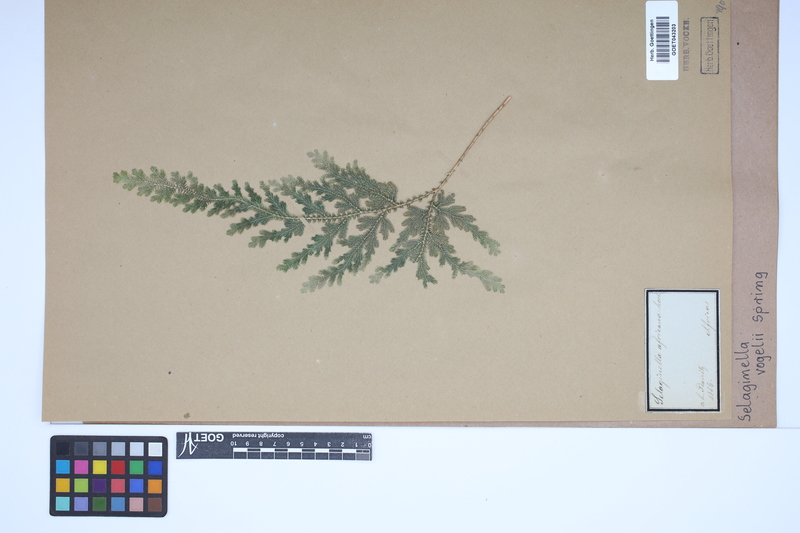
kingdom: Plantae
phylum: Tracheophyta
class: Lycopodiopsida
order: Selaginellales
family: Selaginellaceae
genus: Selaginella
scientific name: Selaginella vogelii
